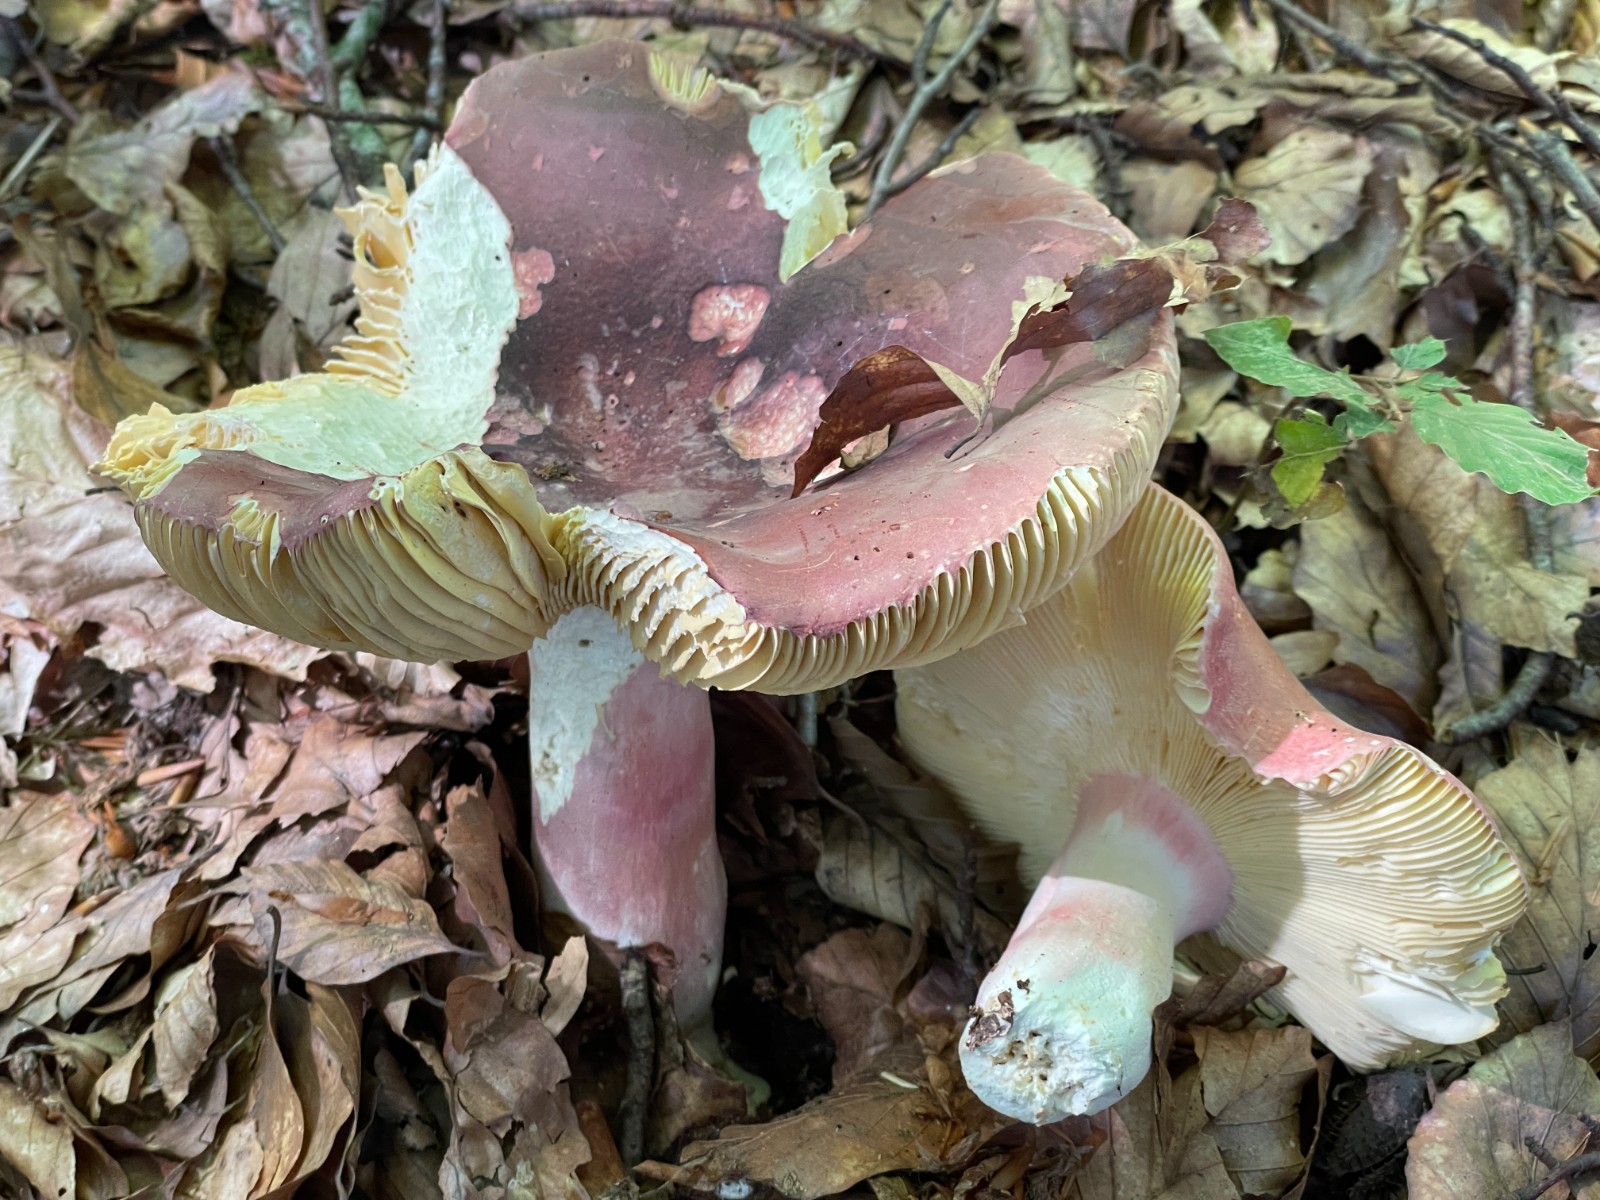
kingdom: Fungi
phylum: Basidiomycota
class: Agaricomycetes
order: Russulales
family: Russulaceae
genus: Russula
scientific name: Russula olivacea
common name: stor skørhat
